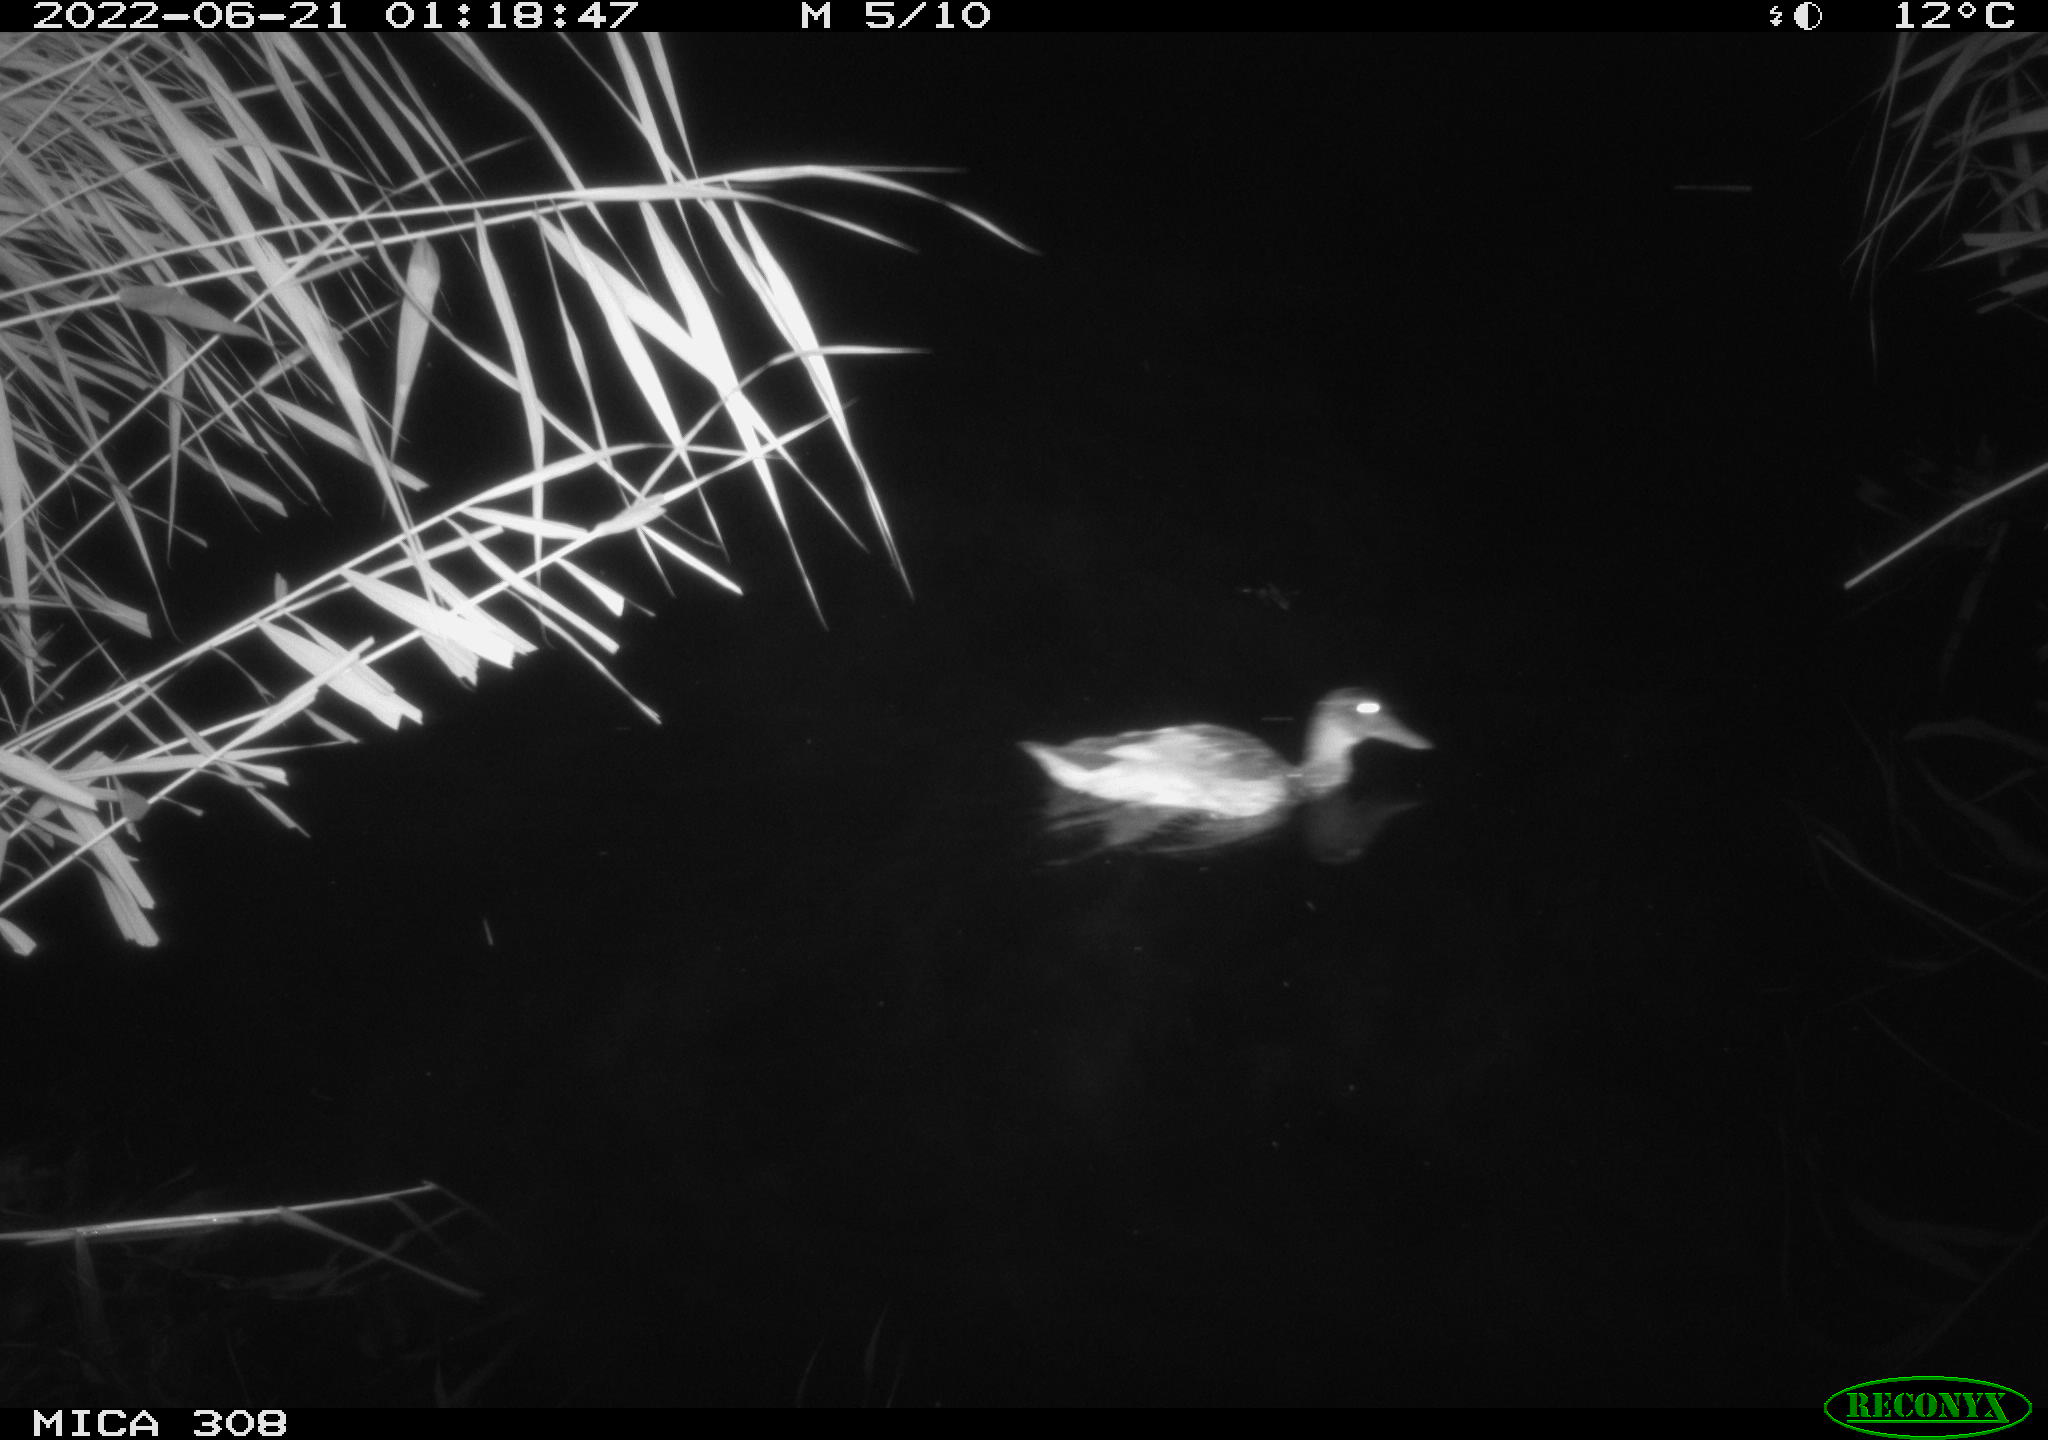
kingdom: Animalia
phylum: Chordata
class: Aves
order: Anseriformes
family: Anatidae
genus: Anas
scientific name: Anas platyrhynchos
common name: Mallard
